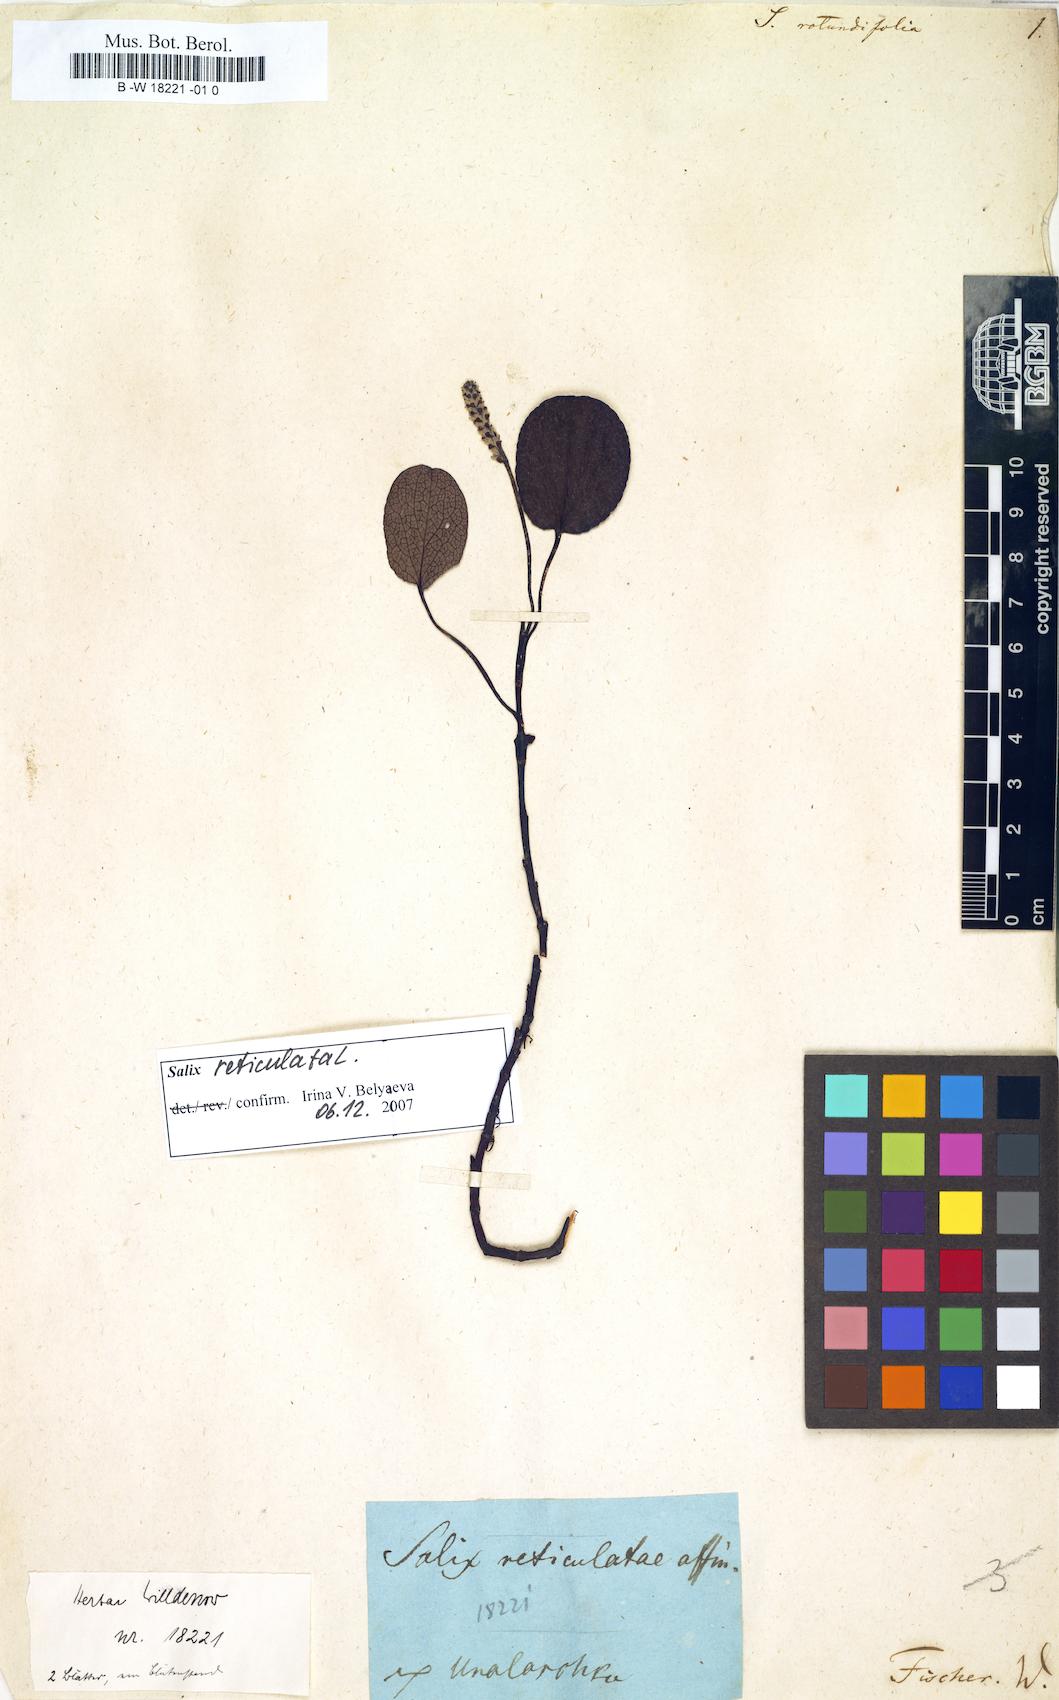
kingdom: Plantae
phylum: Tracheophyta
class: Magnoliopsida
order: Malpighiales
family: Salicaceae
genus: Salix
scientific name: Salix rotundifolia
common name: Least willow
